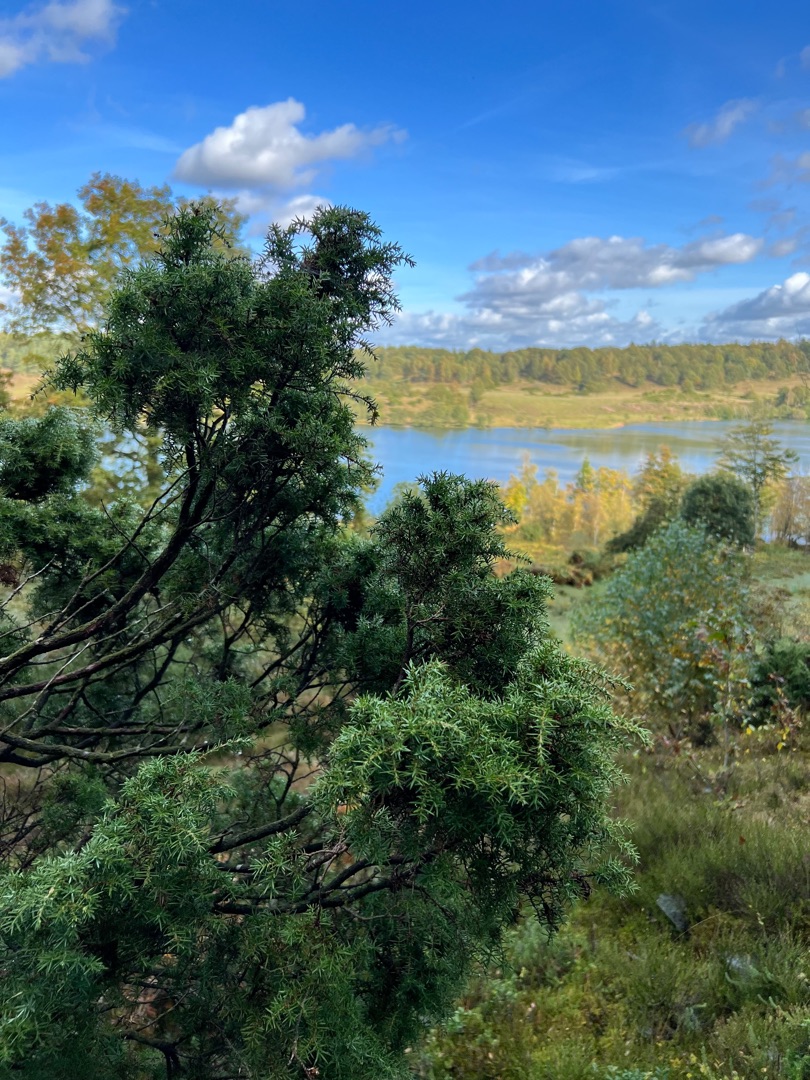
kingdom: Plantae
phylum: Tracheophyta
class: Pinopsida
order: Pinales
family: Cupressaceae
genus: Juniperus
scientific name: Juniperus communis
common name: Almindelig ene
